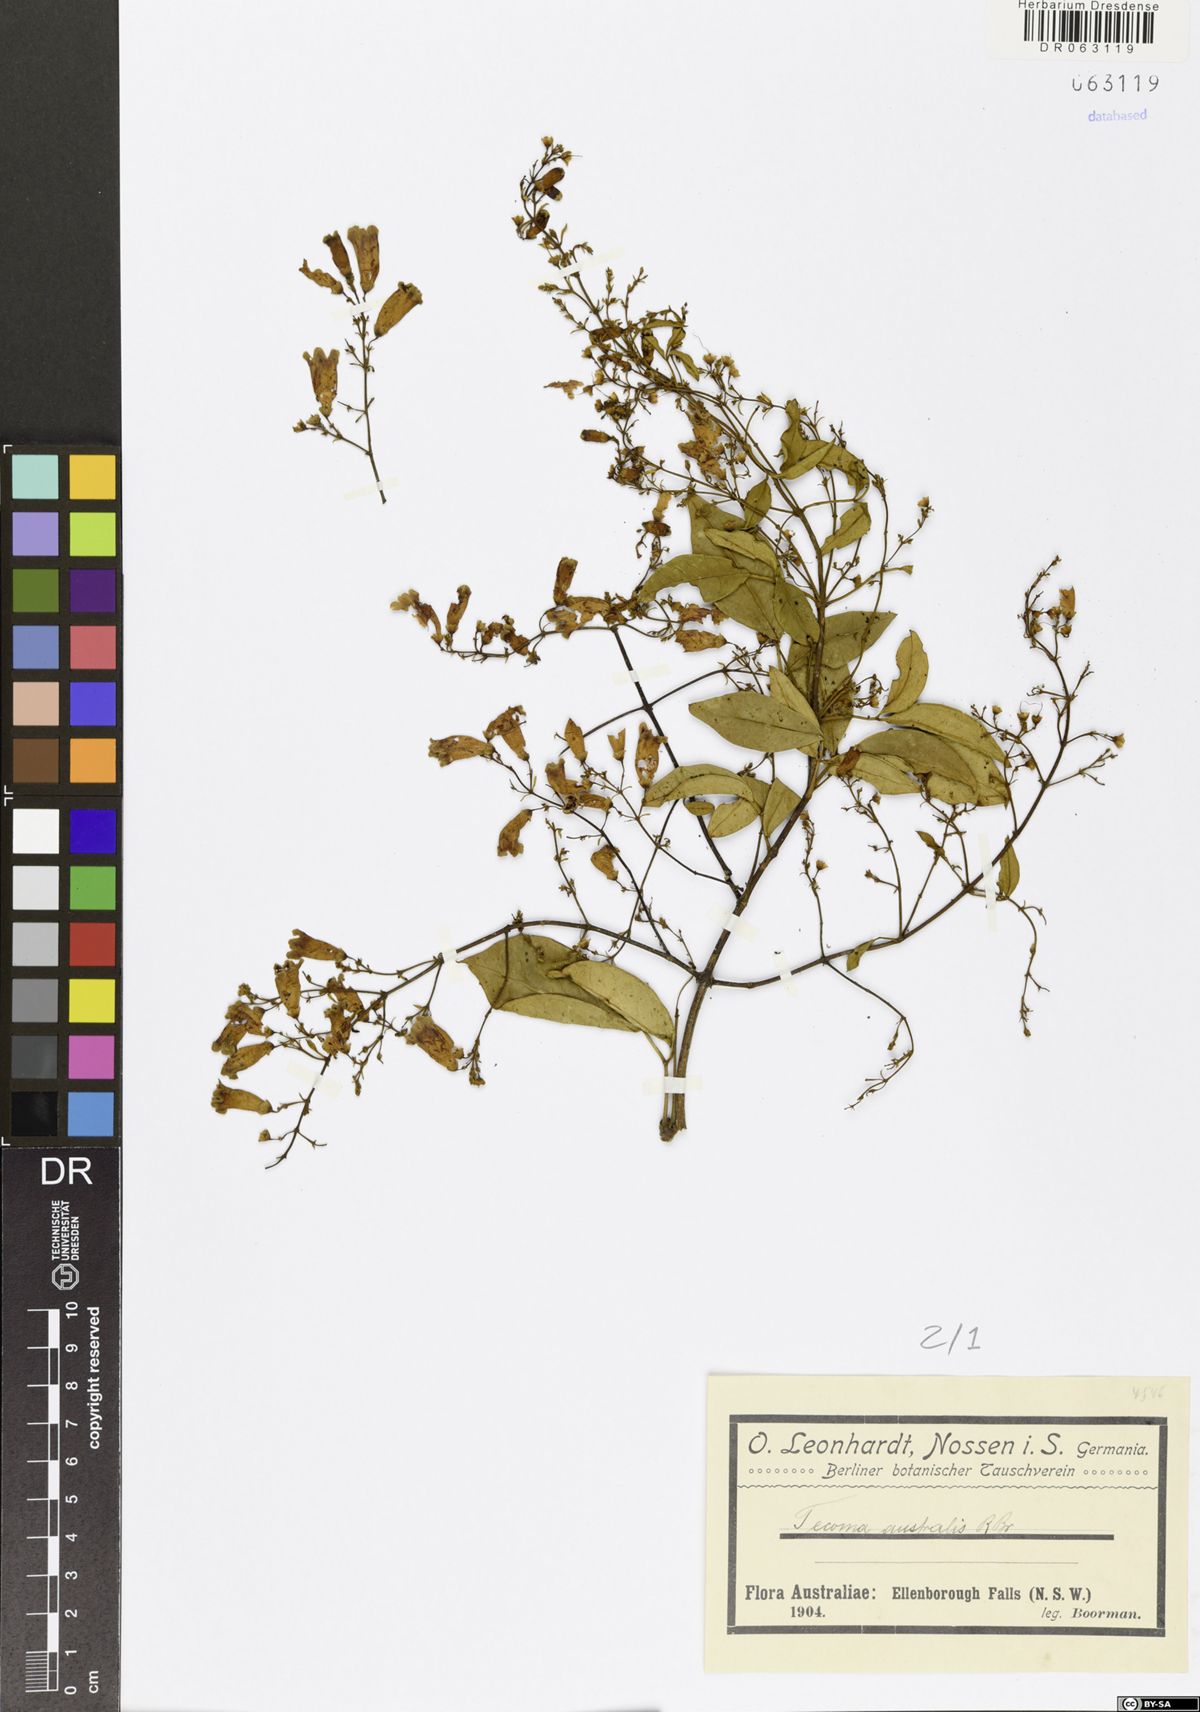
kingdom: Plantae
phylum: Tracheophyta
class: Magnoliopsida
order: Lamiales
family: Bignoniaceae
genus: Pandorea
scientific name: Pandorea pandorana
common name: Wonga-wonga-vine
